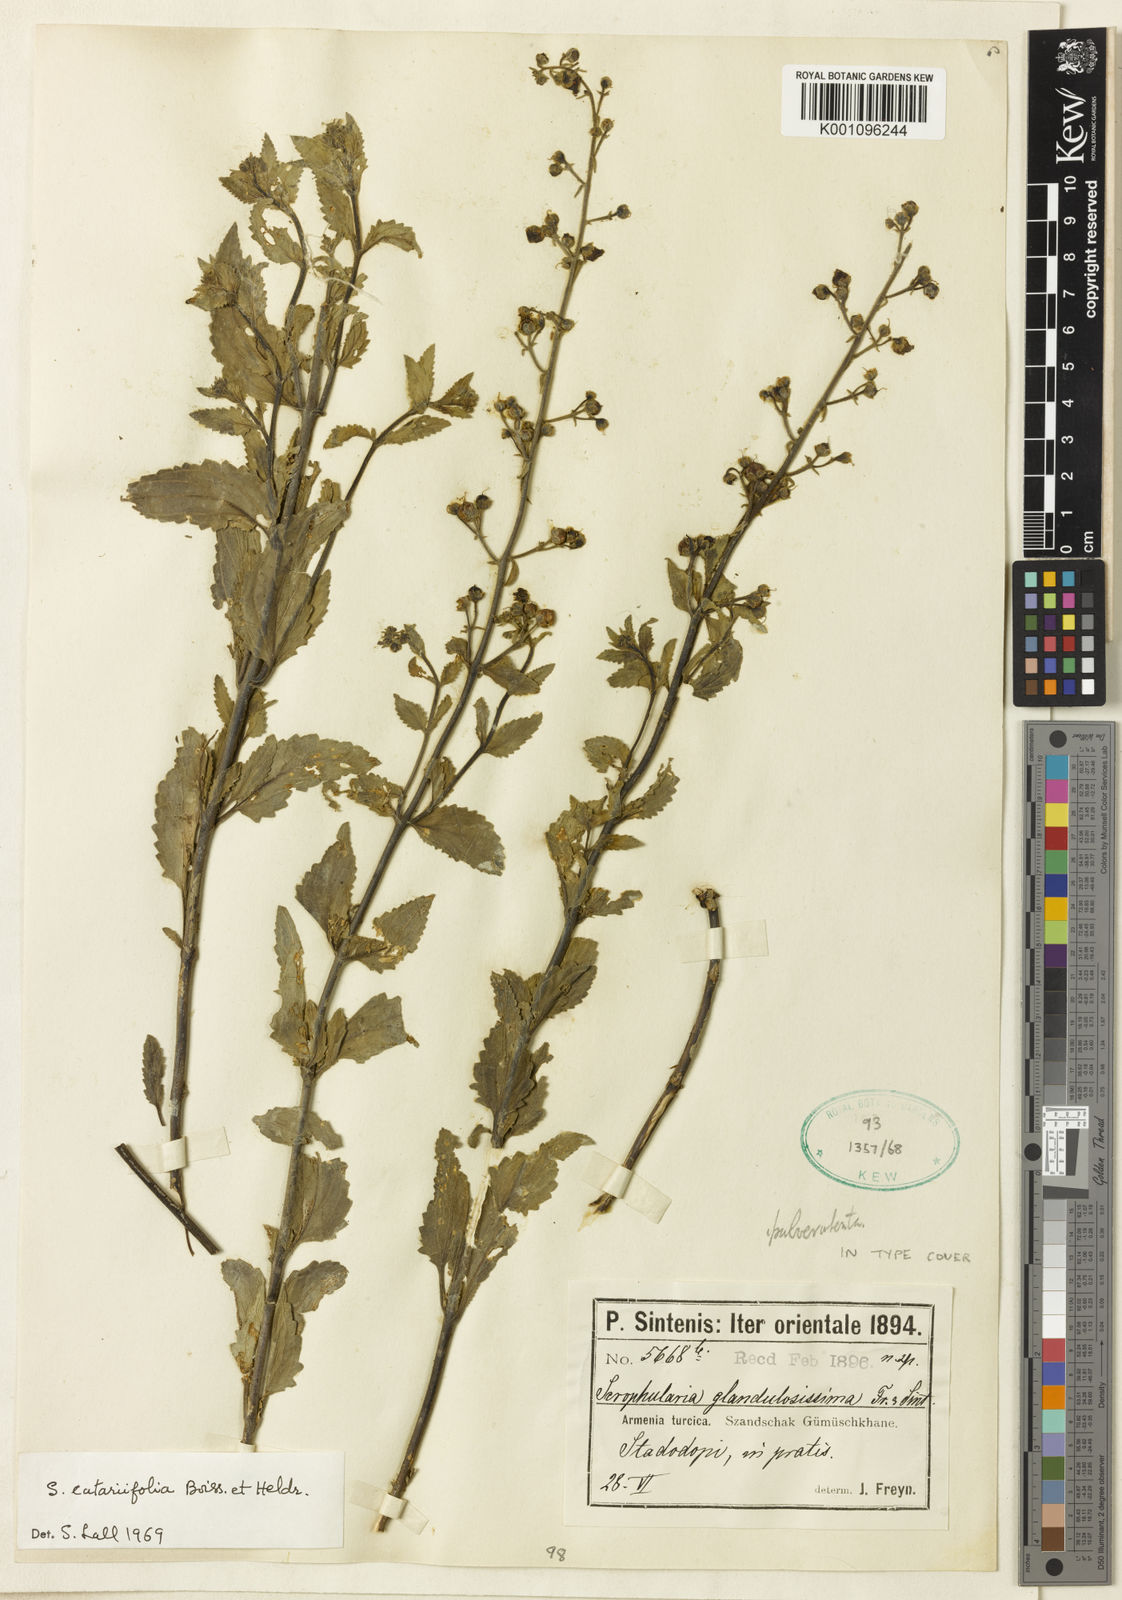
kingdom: Plantae
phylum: Tracheophyta
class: Magnoliopsida
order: Lamiales
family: Scrophulariaceae
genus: Scrophularia
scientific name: Scrophularia
